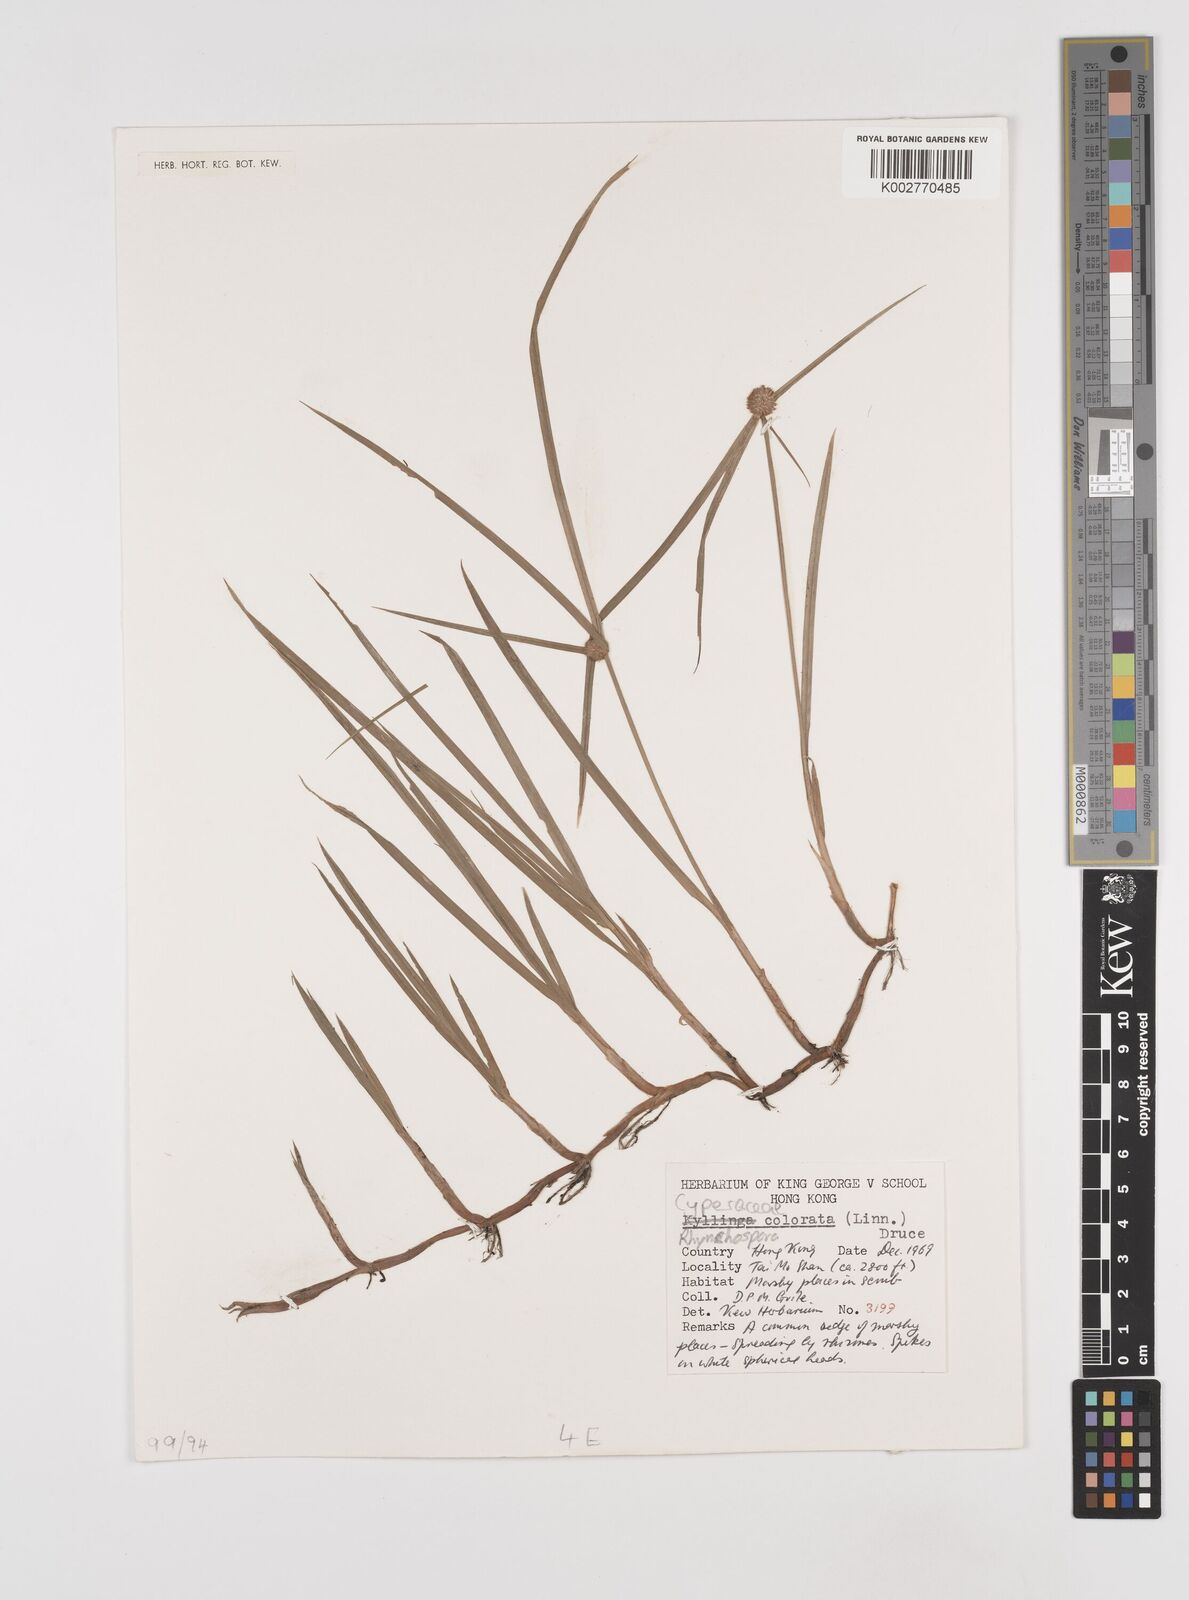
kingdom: Plantae
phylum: Tracheophyta
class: Liliopsida
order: Poales
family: Cyperaceae
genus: Rhynchospora
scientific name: Rhynchospora
